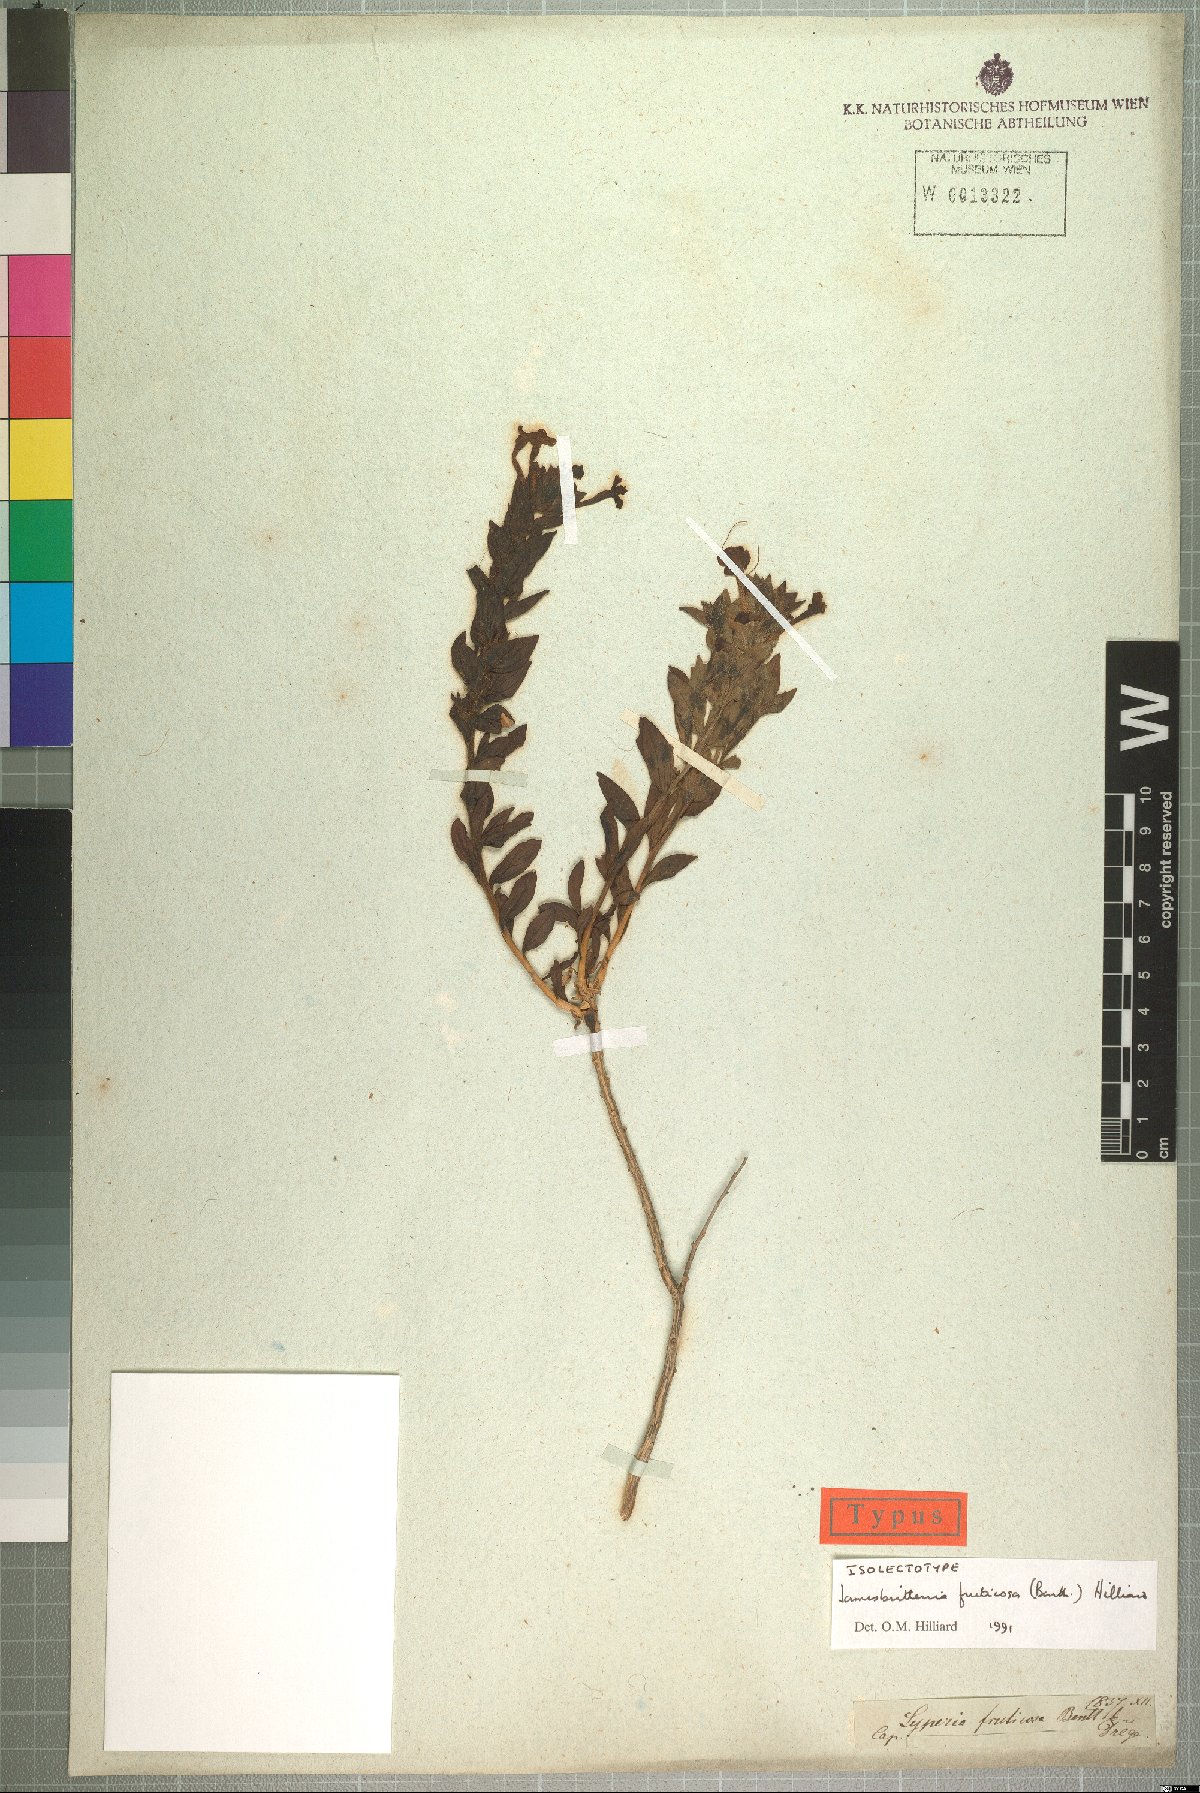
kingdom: Plantae
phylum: Tracheophyta
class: Magnoliopsida
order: Lamiales
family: Scrophulariaceae
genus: Jamesbrittenia
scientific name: Jamesbrittenia fruticosa
